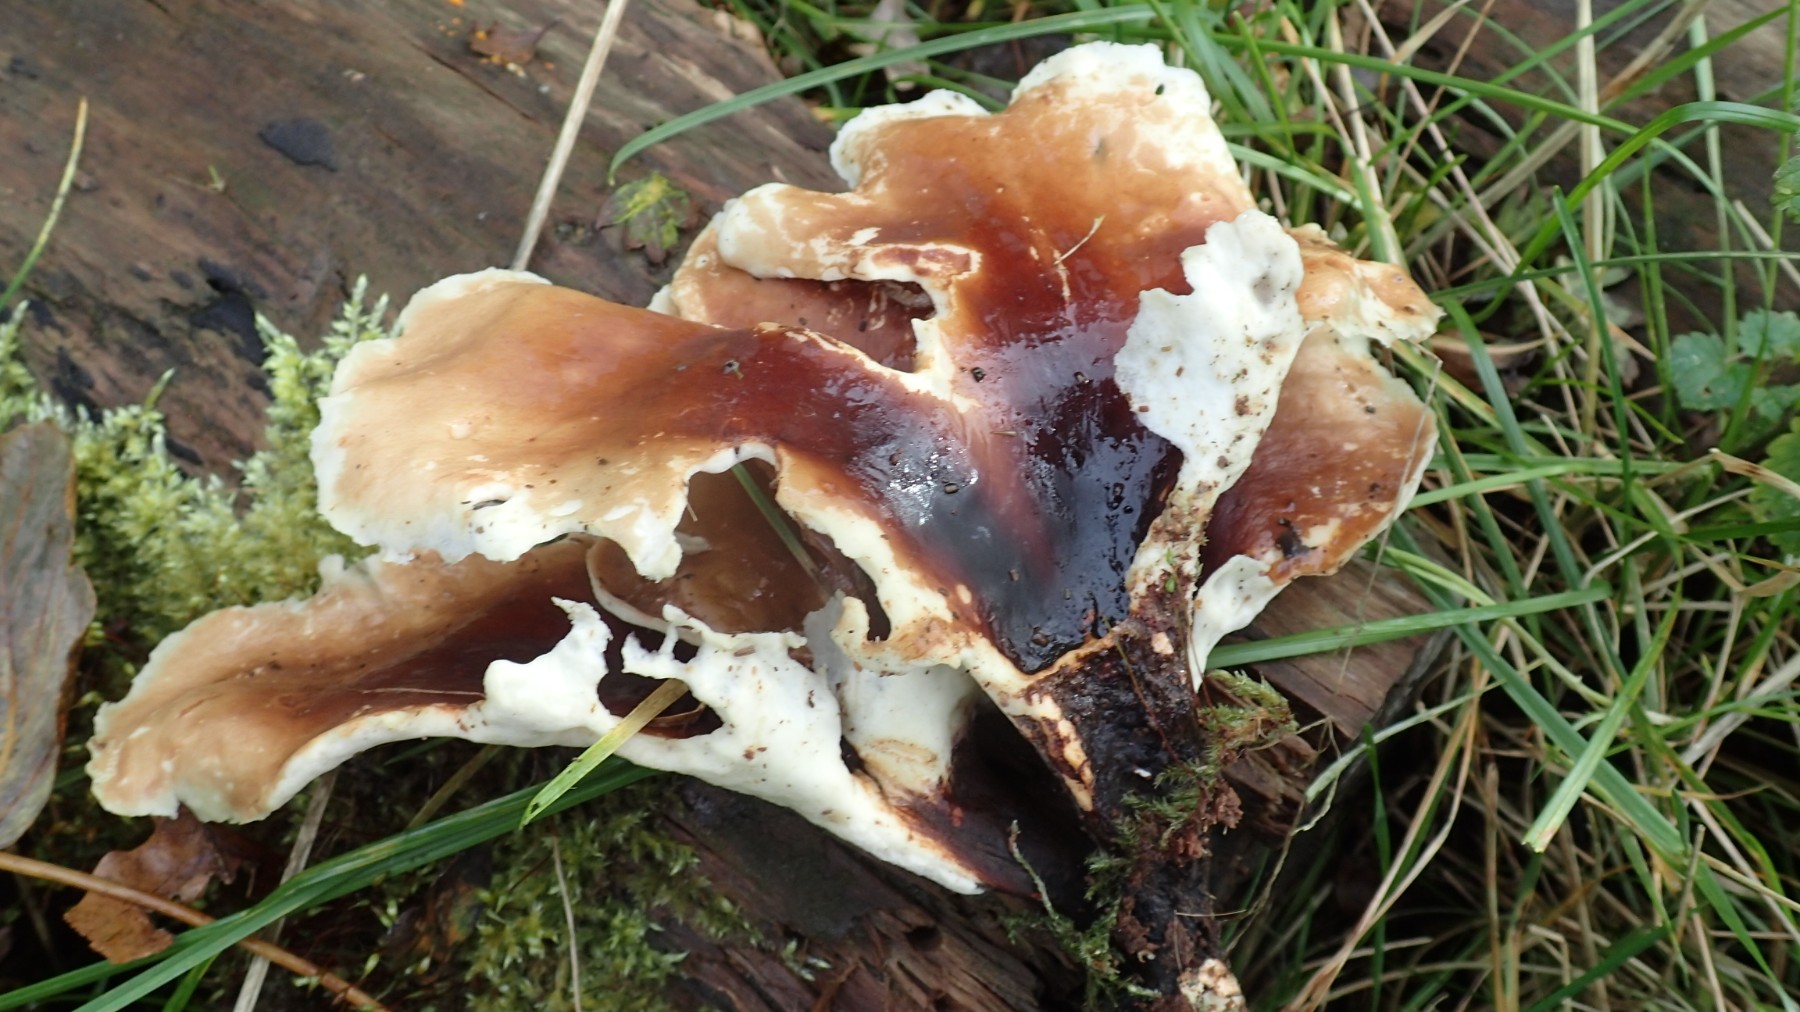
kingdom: Fungi
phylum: Basidiomycota
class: Agaricomycetes
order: Polyporales
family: Polyporaceae
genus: Picipes
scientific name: Picipes badius
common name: kastaniebrun stilkporesvamp
